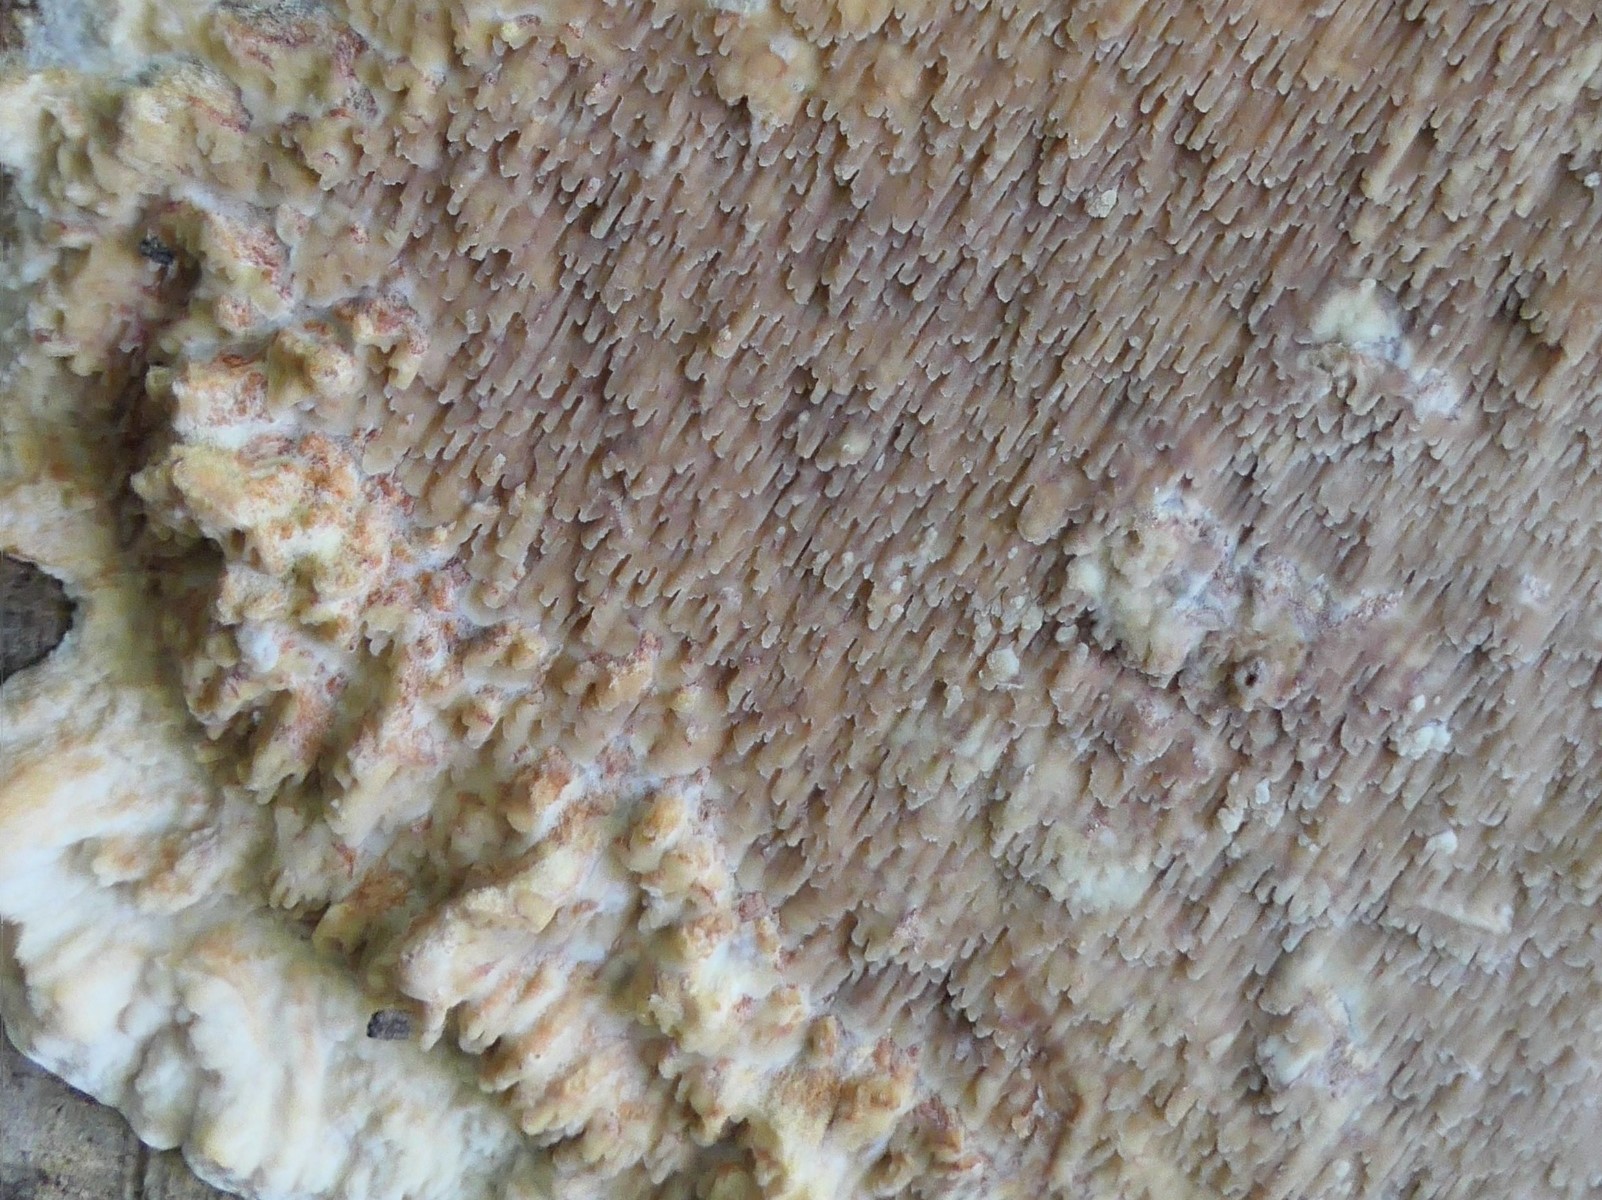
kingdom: Fungi
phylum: Basidiomycota
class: Agaricomycetes
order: Polyporales
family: Meruliaceae
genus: Phlebia
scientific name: Phlebia rufa
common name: ege-åresvamp
